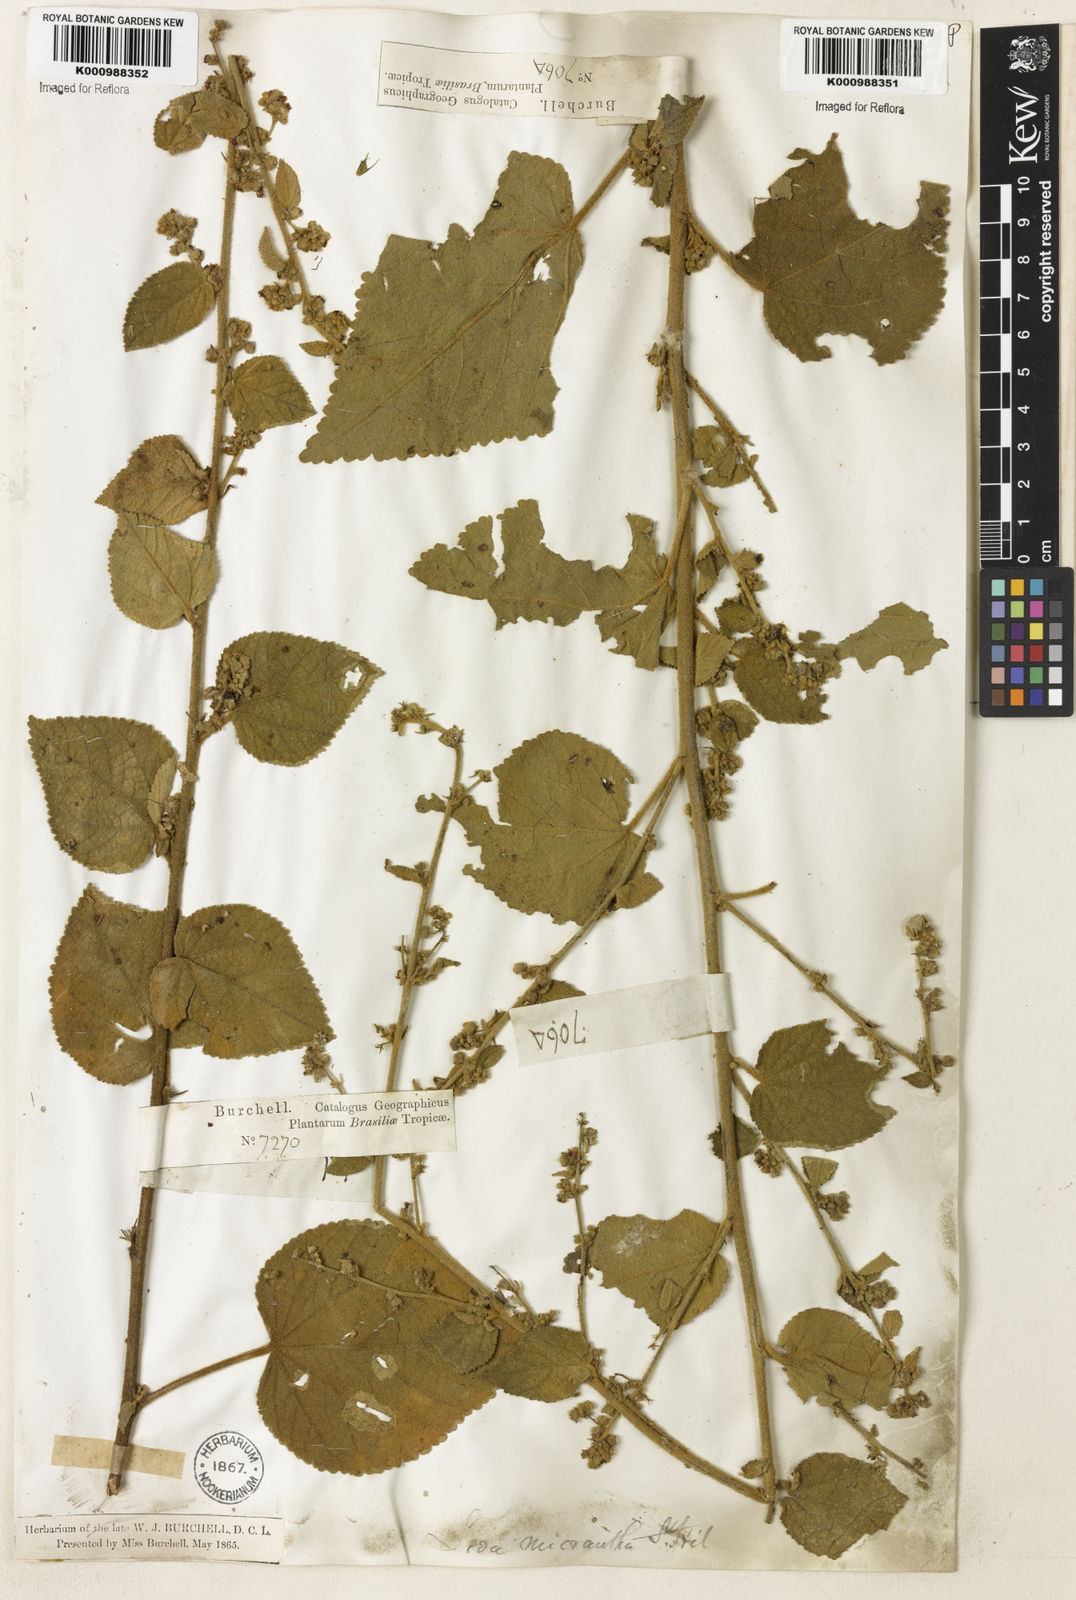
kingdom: Plantae
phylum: Tracheophyta
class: Magnoliopsida
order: Malvales
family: Malvaceae
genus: Sidastrum
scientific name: Sidastrum micranthum
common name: Dainty sandmallow
